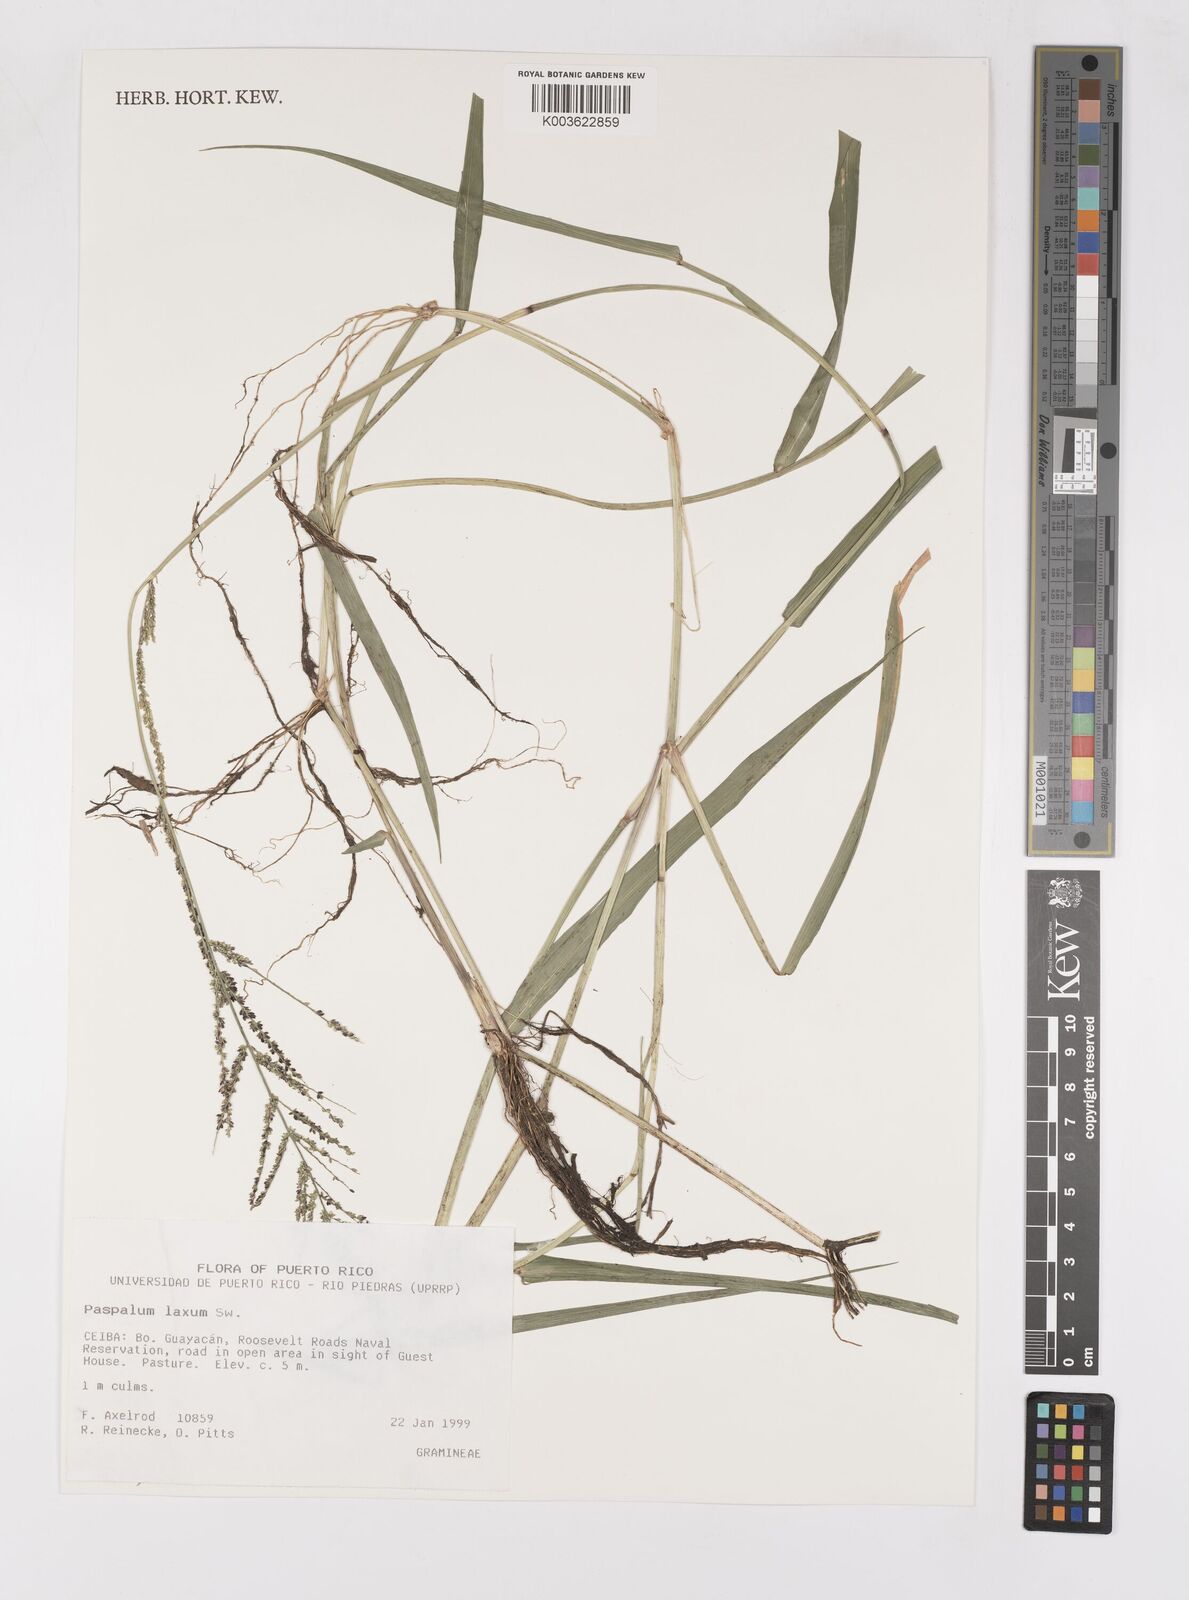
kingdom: Plantae
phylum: Tracheophyta
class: Liliopsida
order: Poales
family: Poaceae
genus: Paspalum
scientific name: Paspalum laxum
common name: Coconut paspalum
